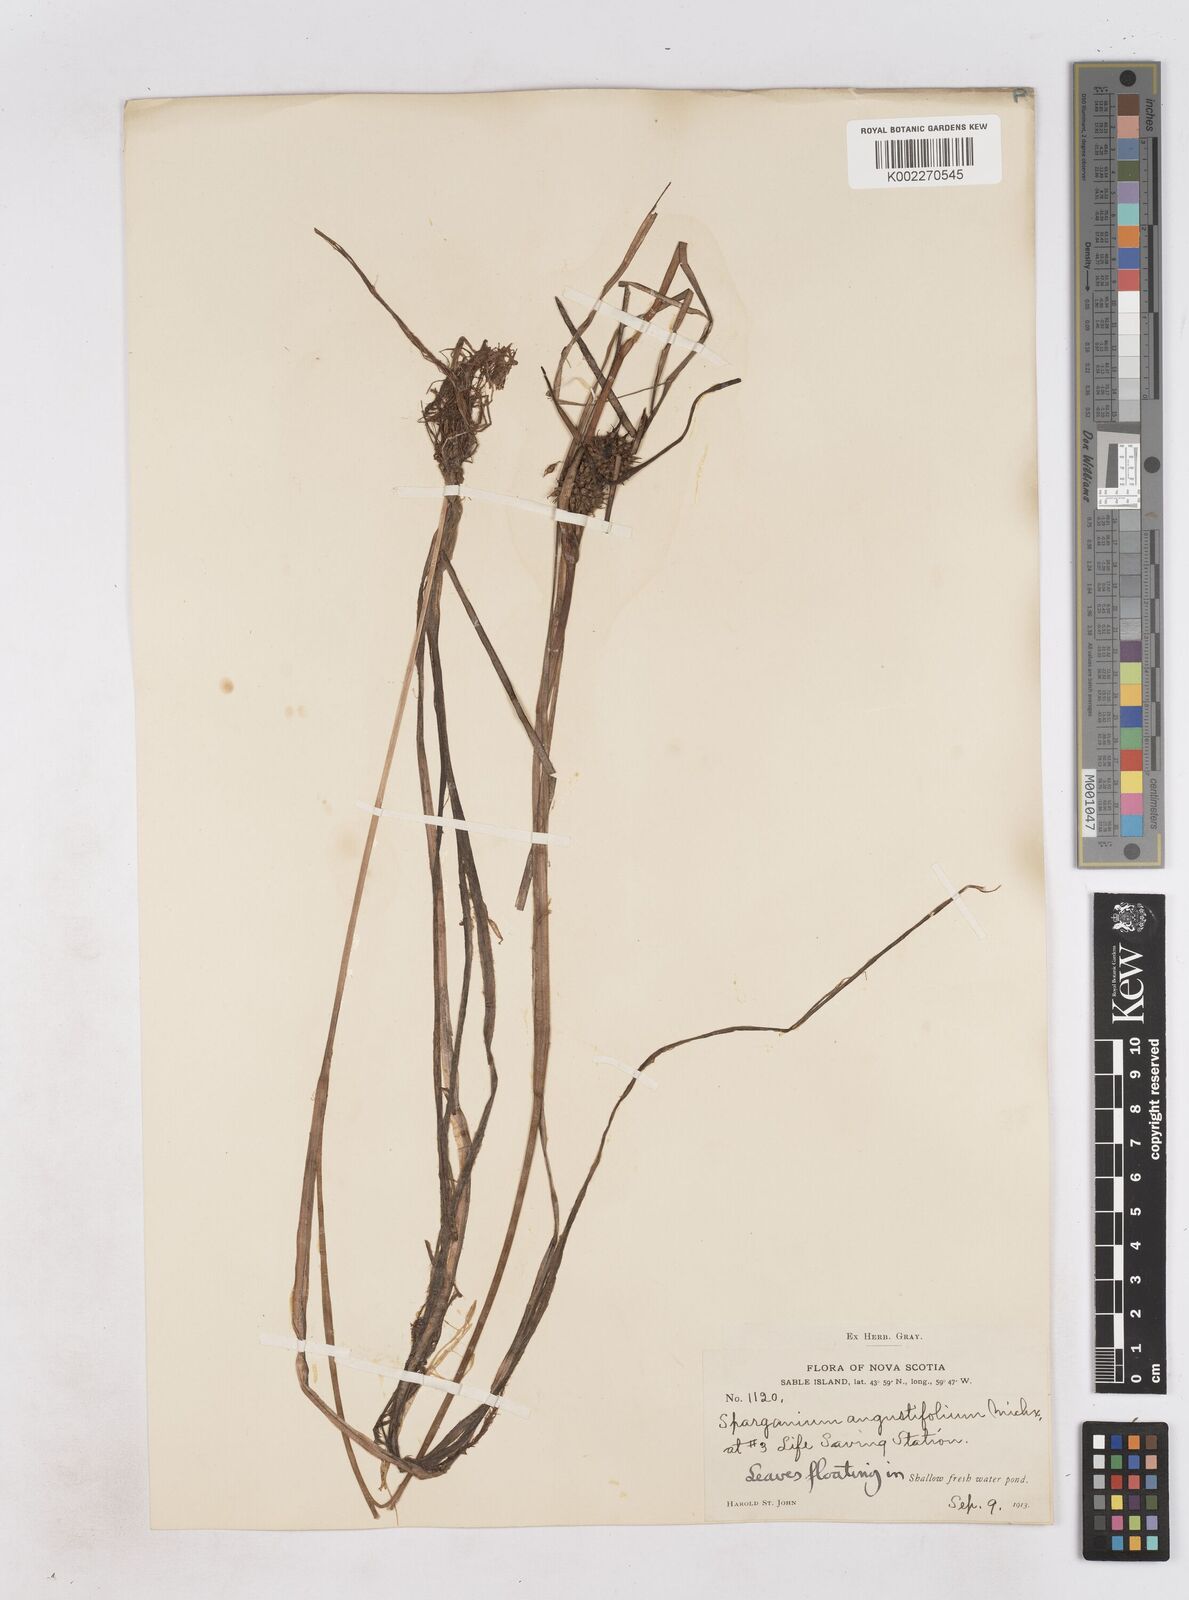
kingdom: Plantae
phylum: Tracheophyta
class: Liliopsida
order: Poales
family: Typhaceae
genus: Sparganium
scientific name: Sparganium angustifolium
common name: Floating bur-reed
